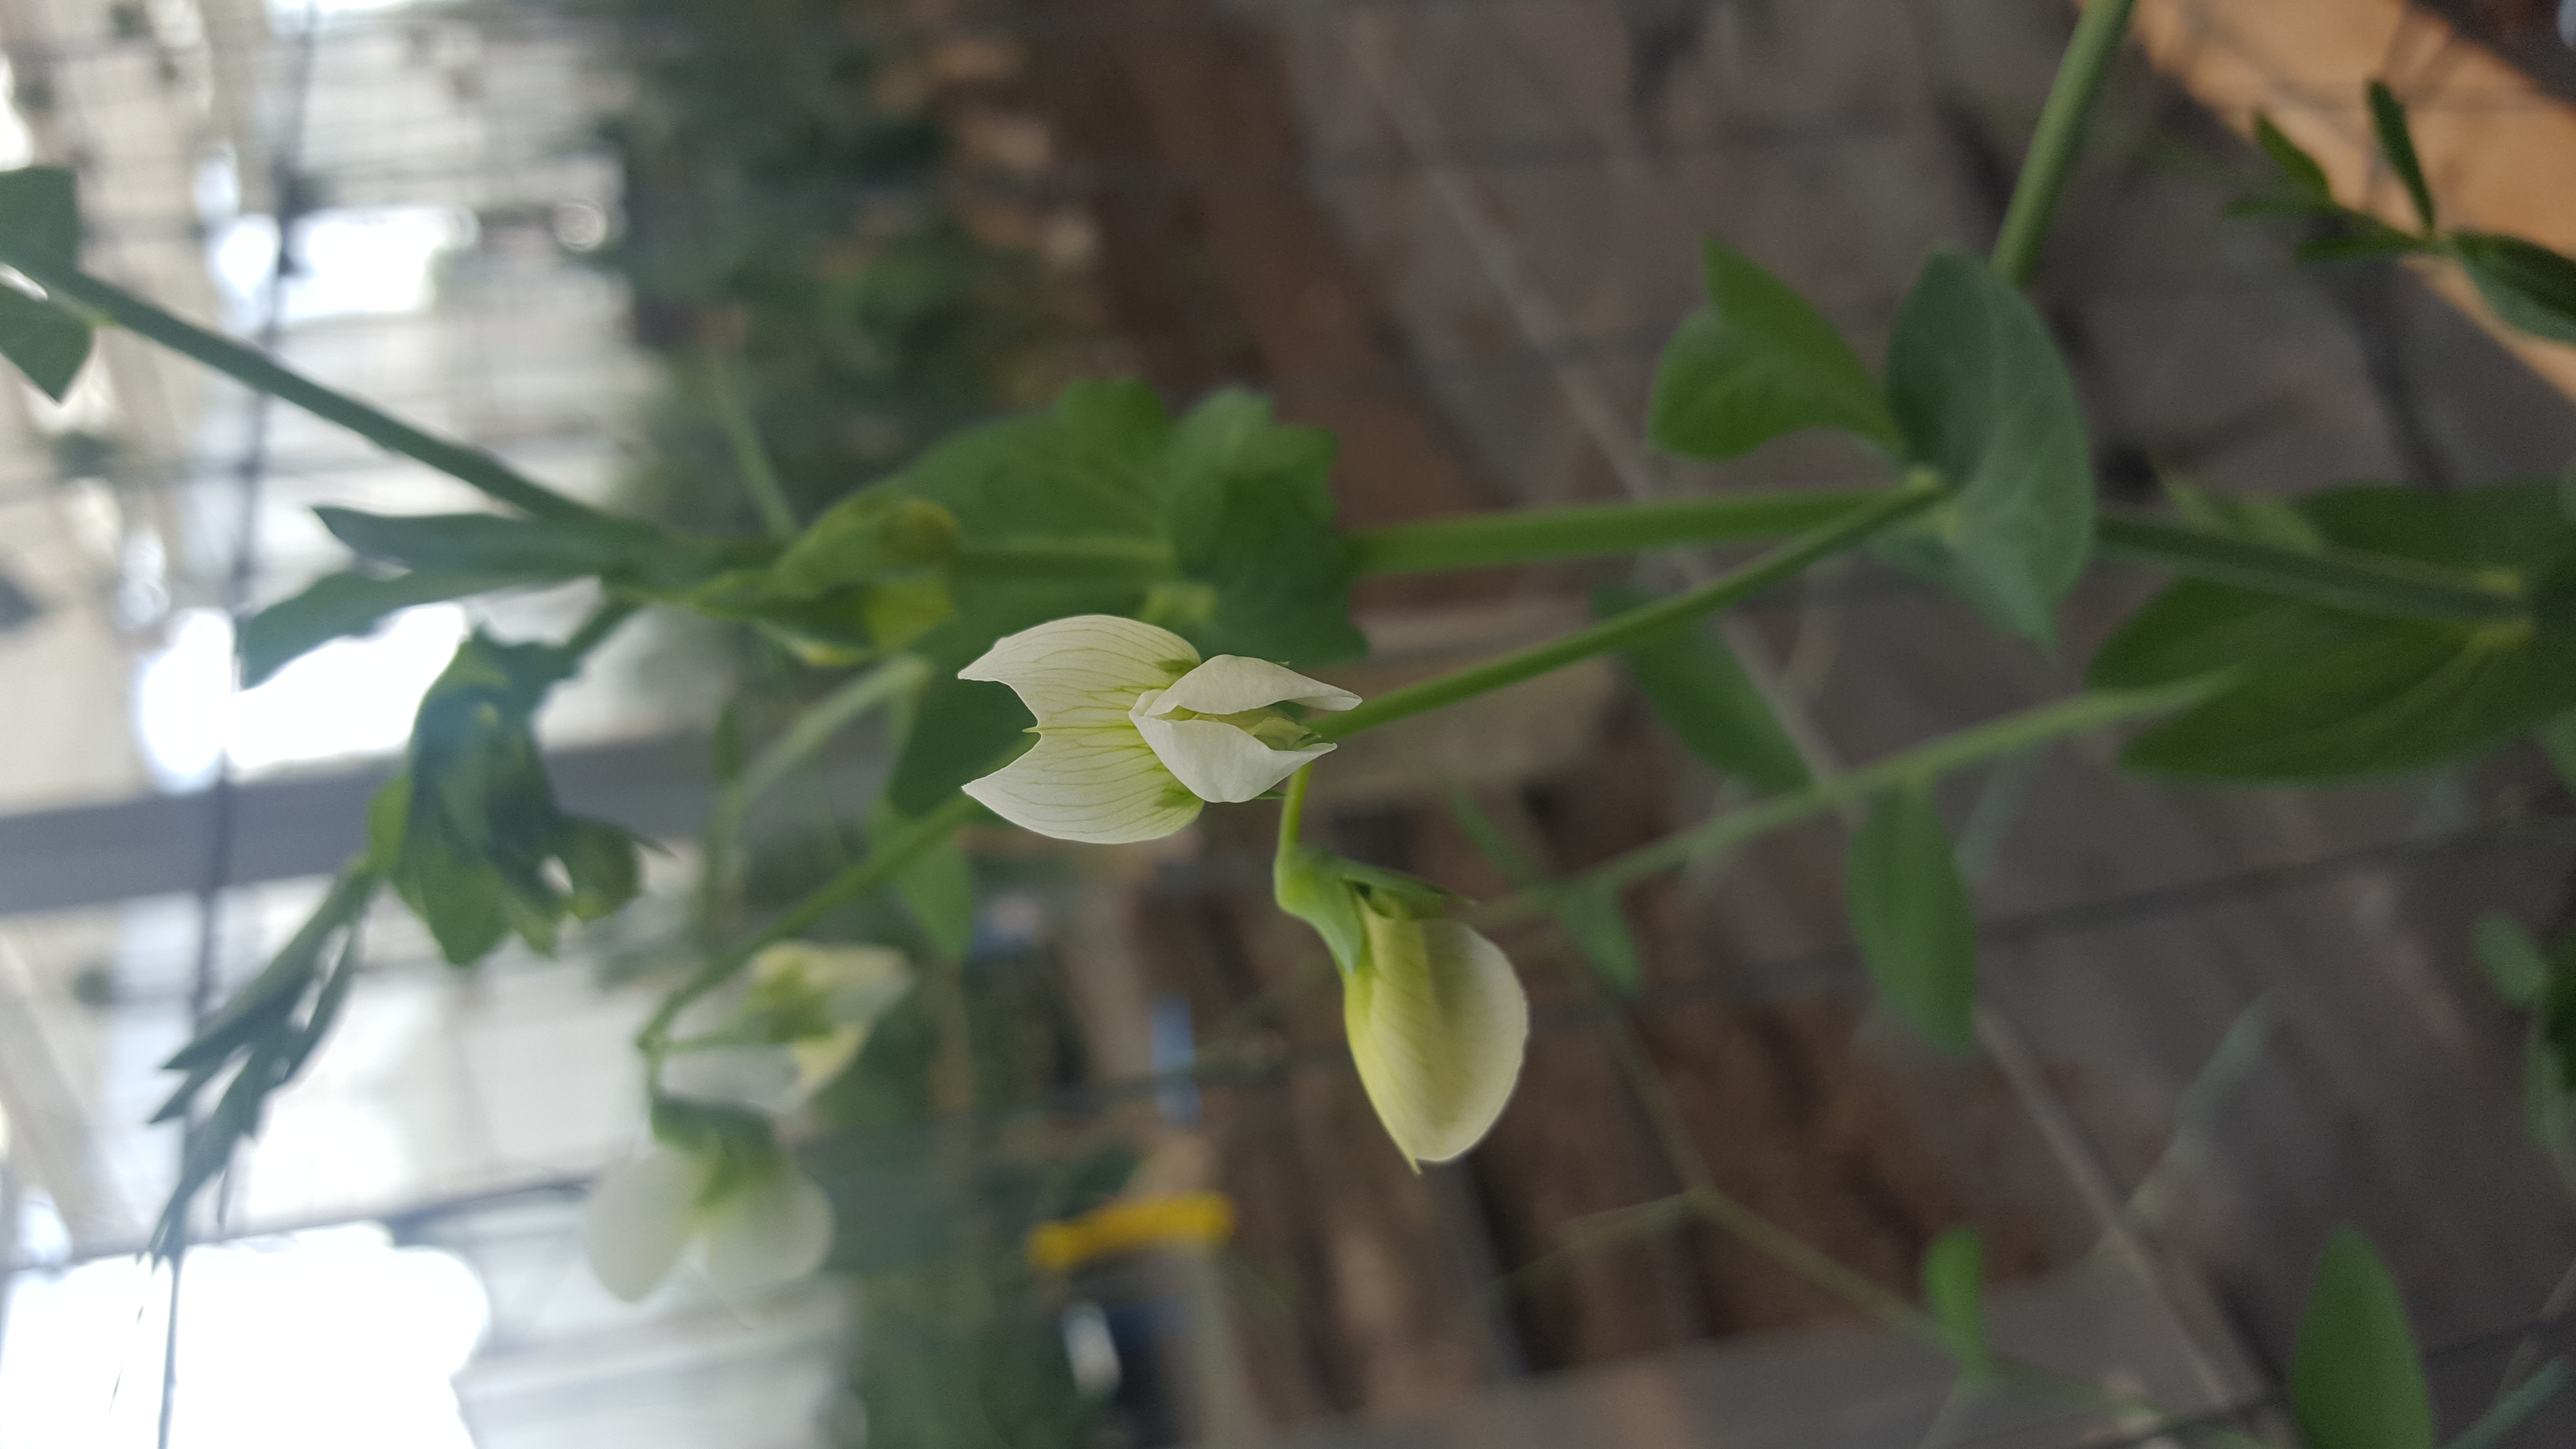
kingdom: Plantae
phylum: Tracheophyta
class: Magnoliopsida
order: Fabales
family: Fabaceae
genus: Lathyrus
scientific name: Lathyrus oleraceus
